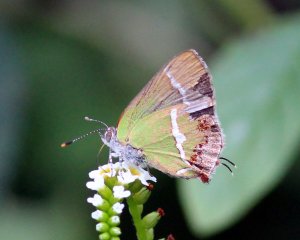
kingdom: Animalia
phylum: Arthropoda
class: Insecta
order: Lepidoptera
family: Lycaenidae
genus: Chlorostrymon
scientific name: Chlorostrymon simaethis
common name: Silver-banded Hairstreak
